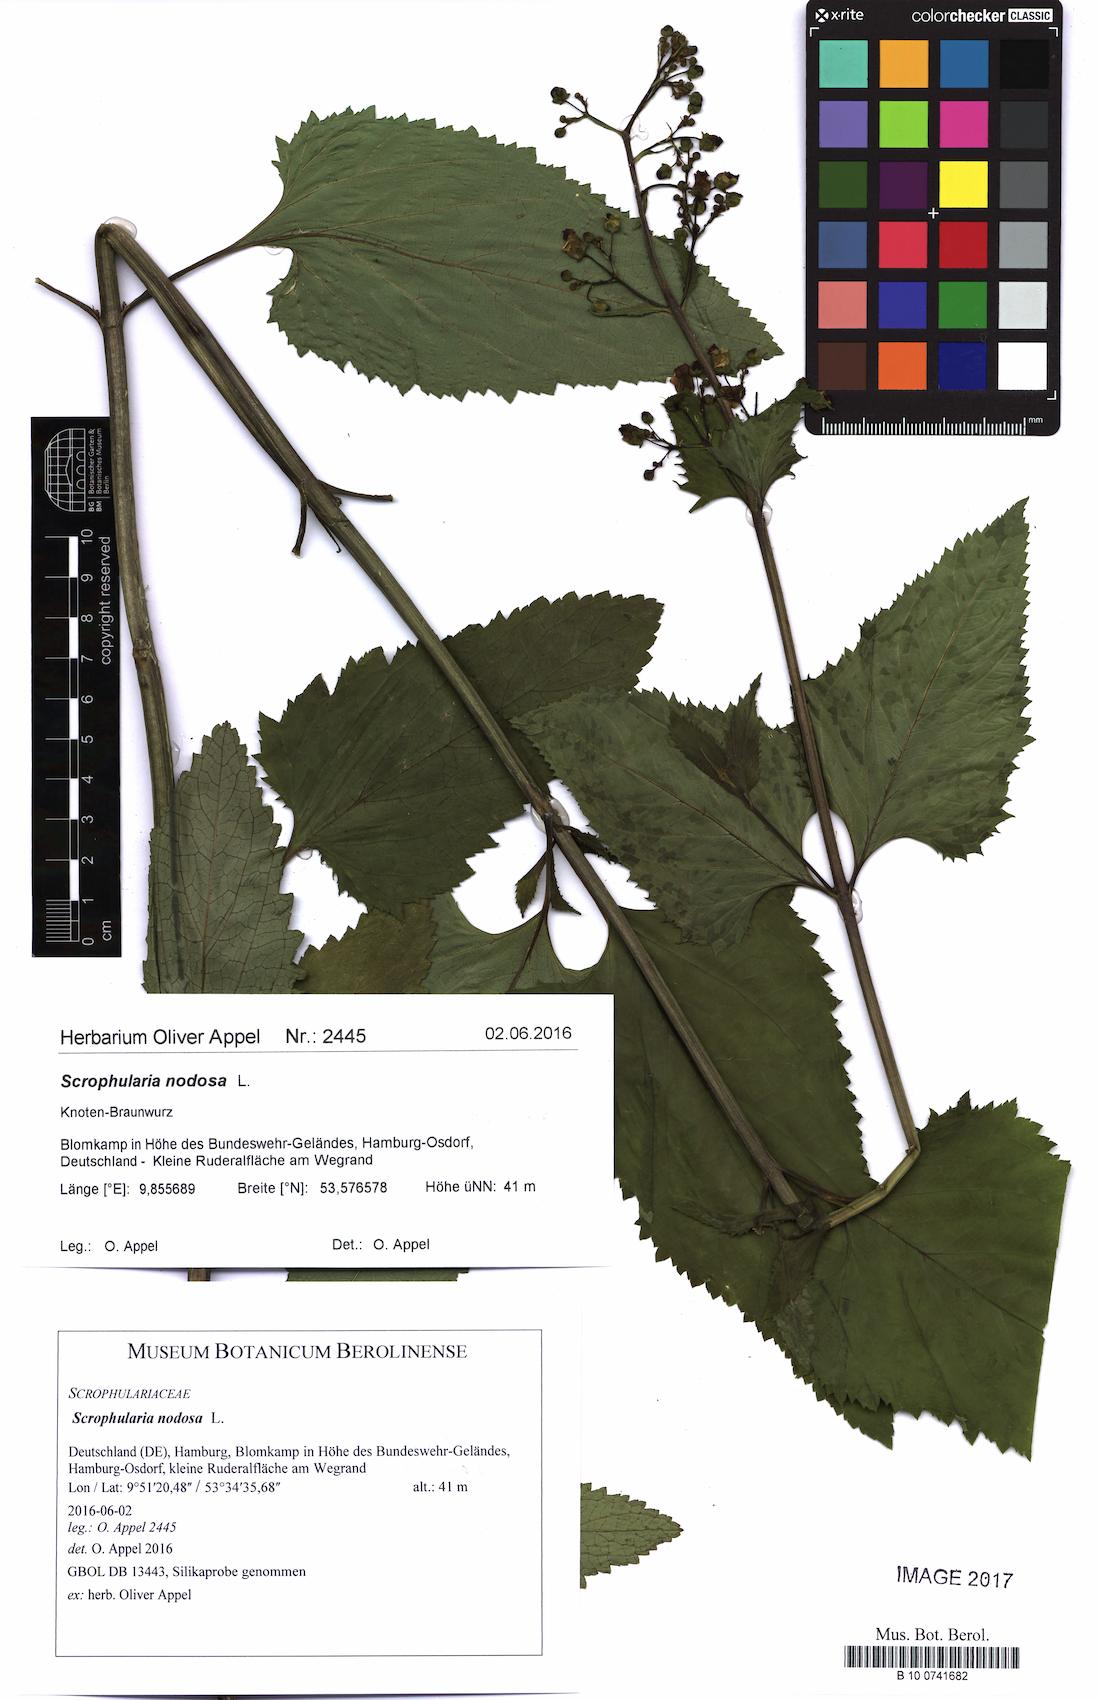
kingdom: Plantae
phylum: Tracheophyta
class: Magnoliopsida
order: Lamiales
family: Scrophulariaceae
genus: Scrophularia
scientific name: Scrophularia nodosa
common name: Common figwort
